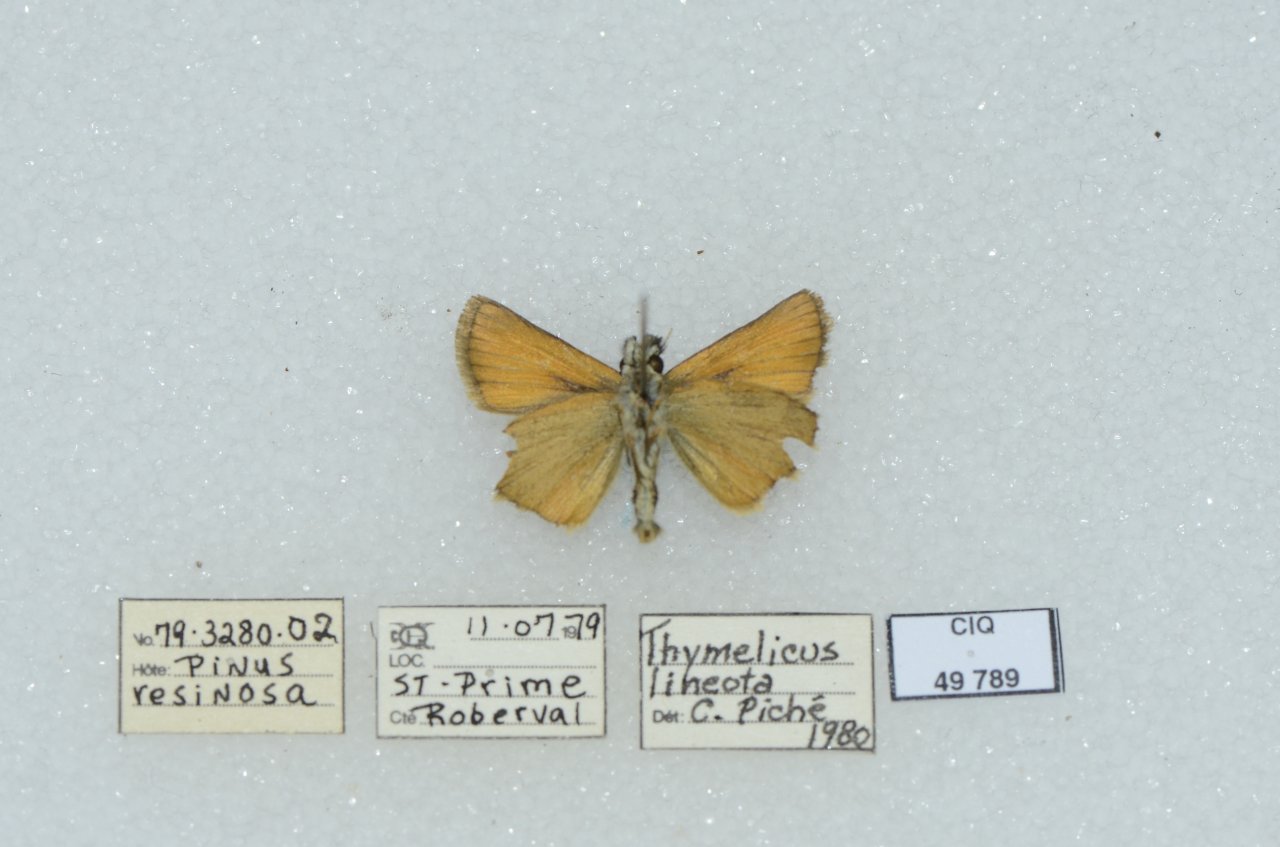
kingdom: Animalia
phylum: Arthropoda
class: Insecta
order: Lepidoptera
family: Hesperiidae
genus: Thymelicus
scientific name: Thymelicus lineola
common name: European Skipper
